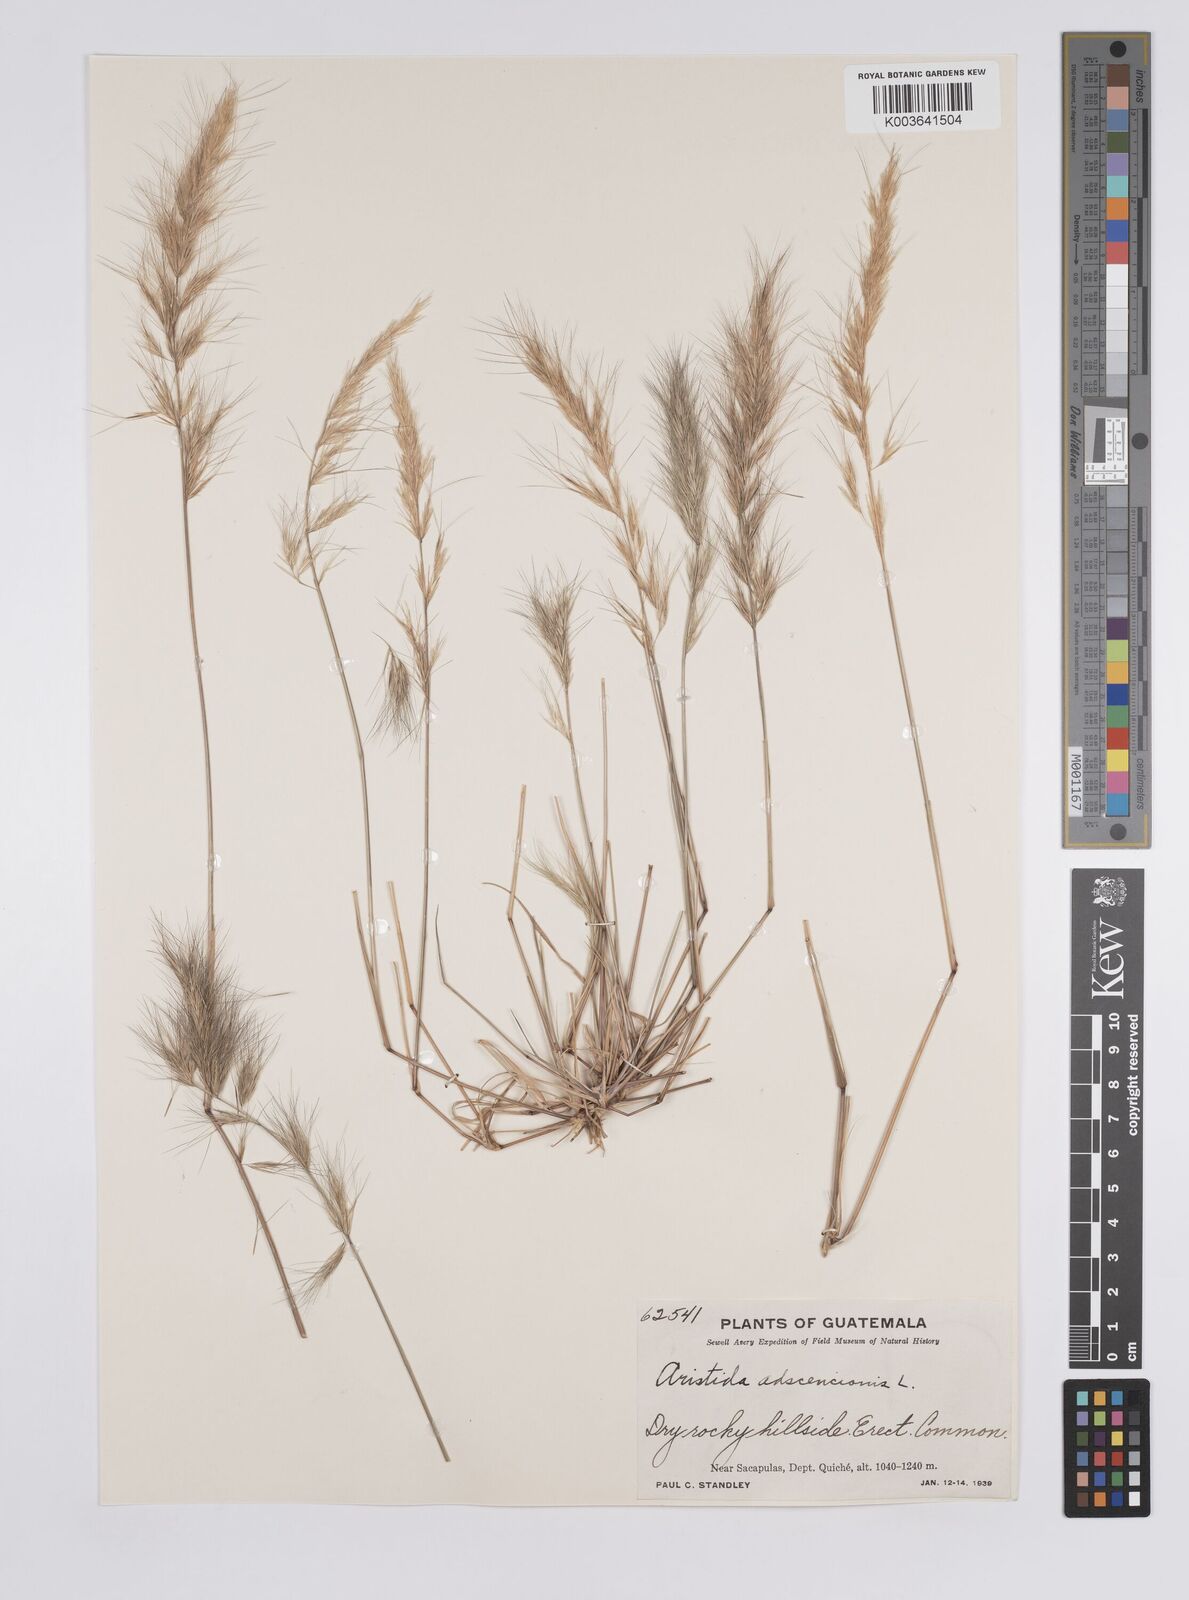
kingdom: Plantae
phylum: Tracheophyta
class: Liliopsida
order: Poales
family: Poaceae
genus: Aristida
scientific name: Aristida adscensionis
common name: Sixweeks threeawn
